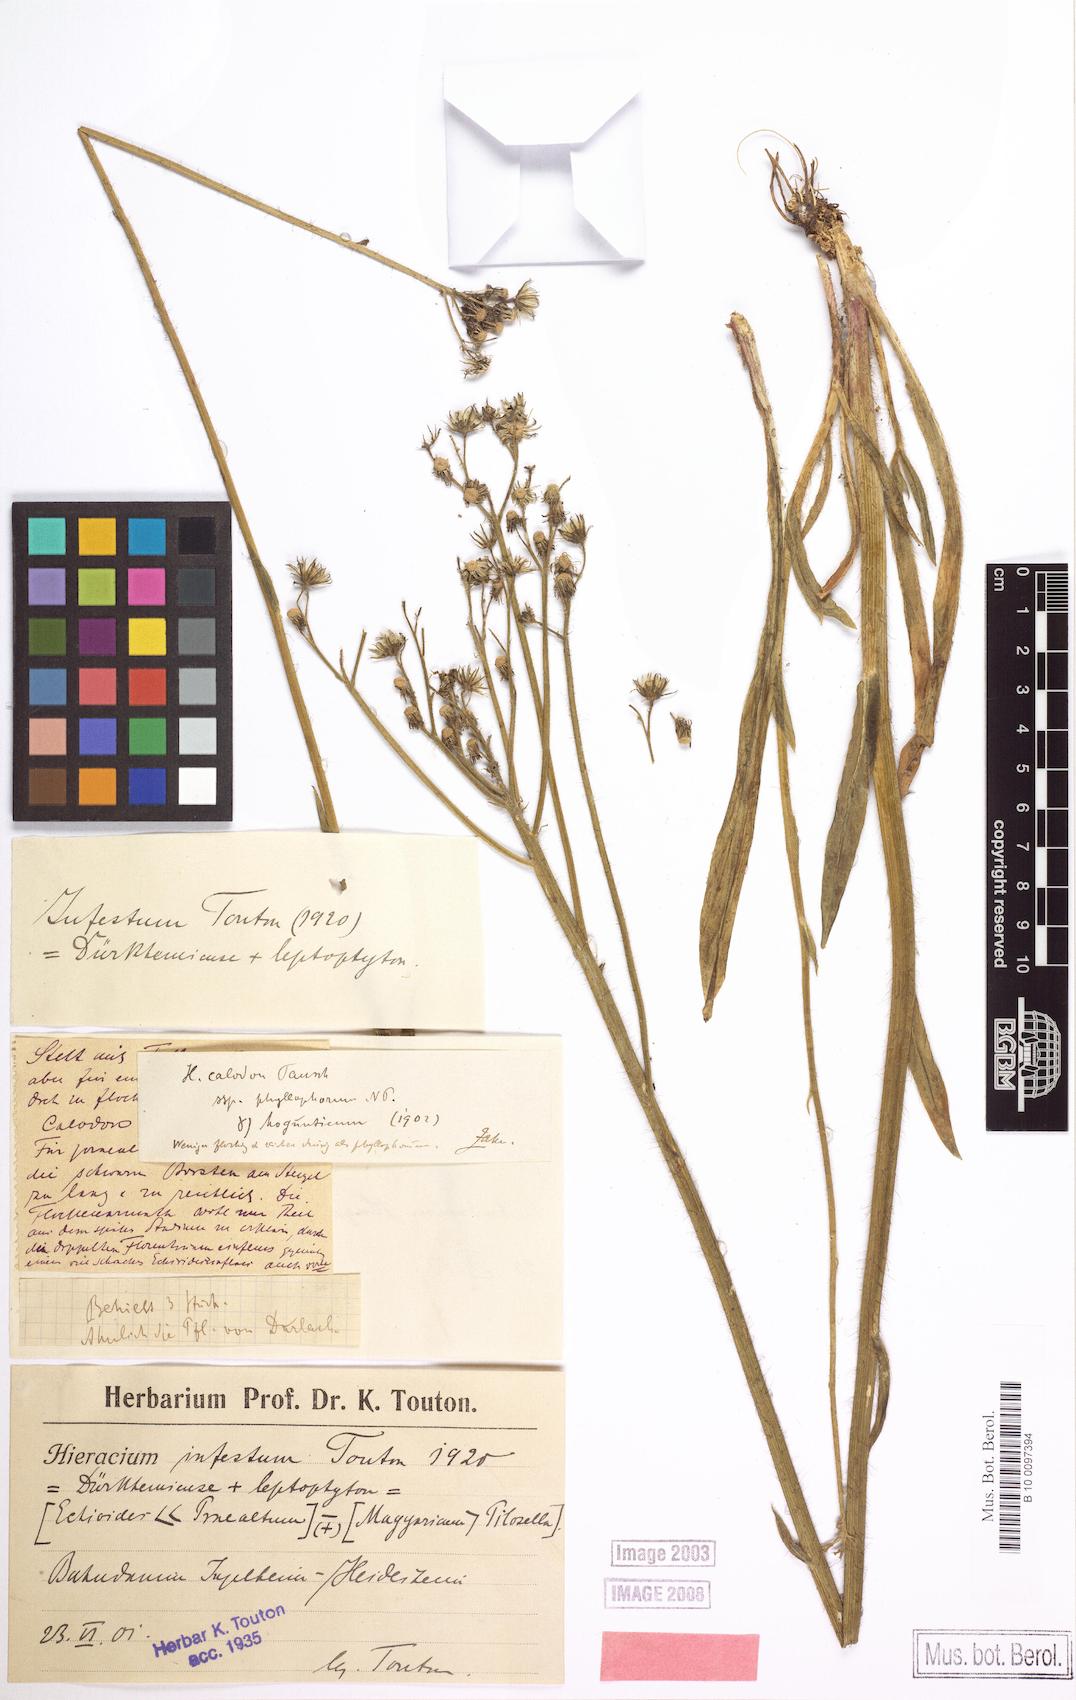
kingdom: Plantae
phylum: Tracheophyta
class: Magnoliopsida
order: Asterales
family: Asteraceae
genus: Pilosella
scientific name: Pilosella visianii
